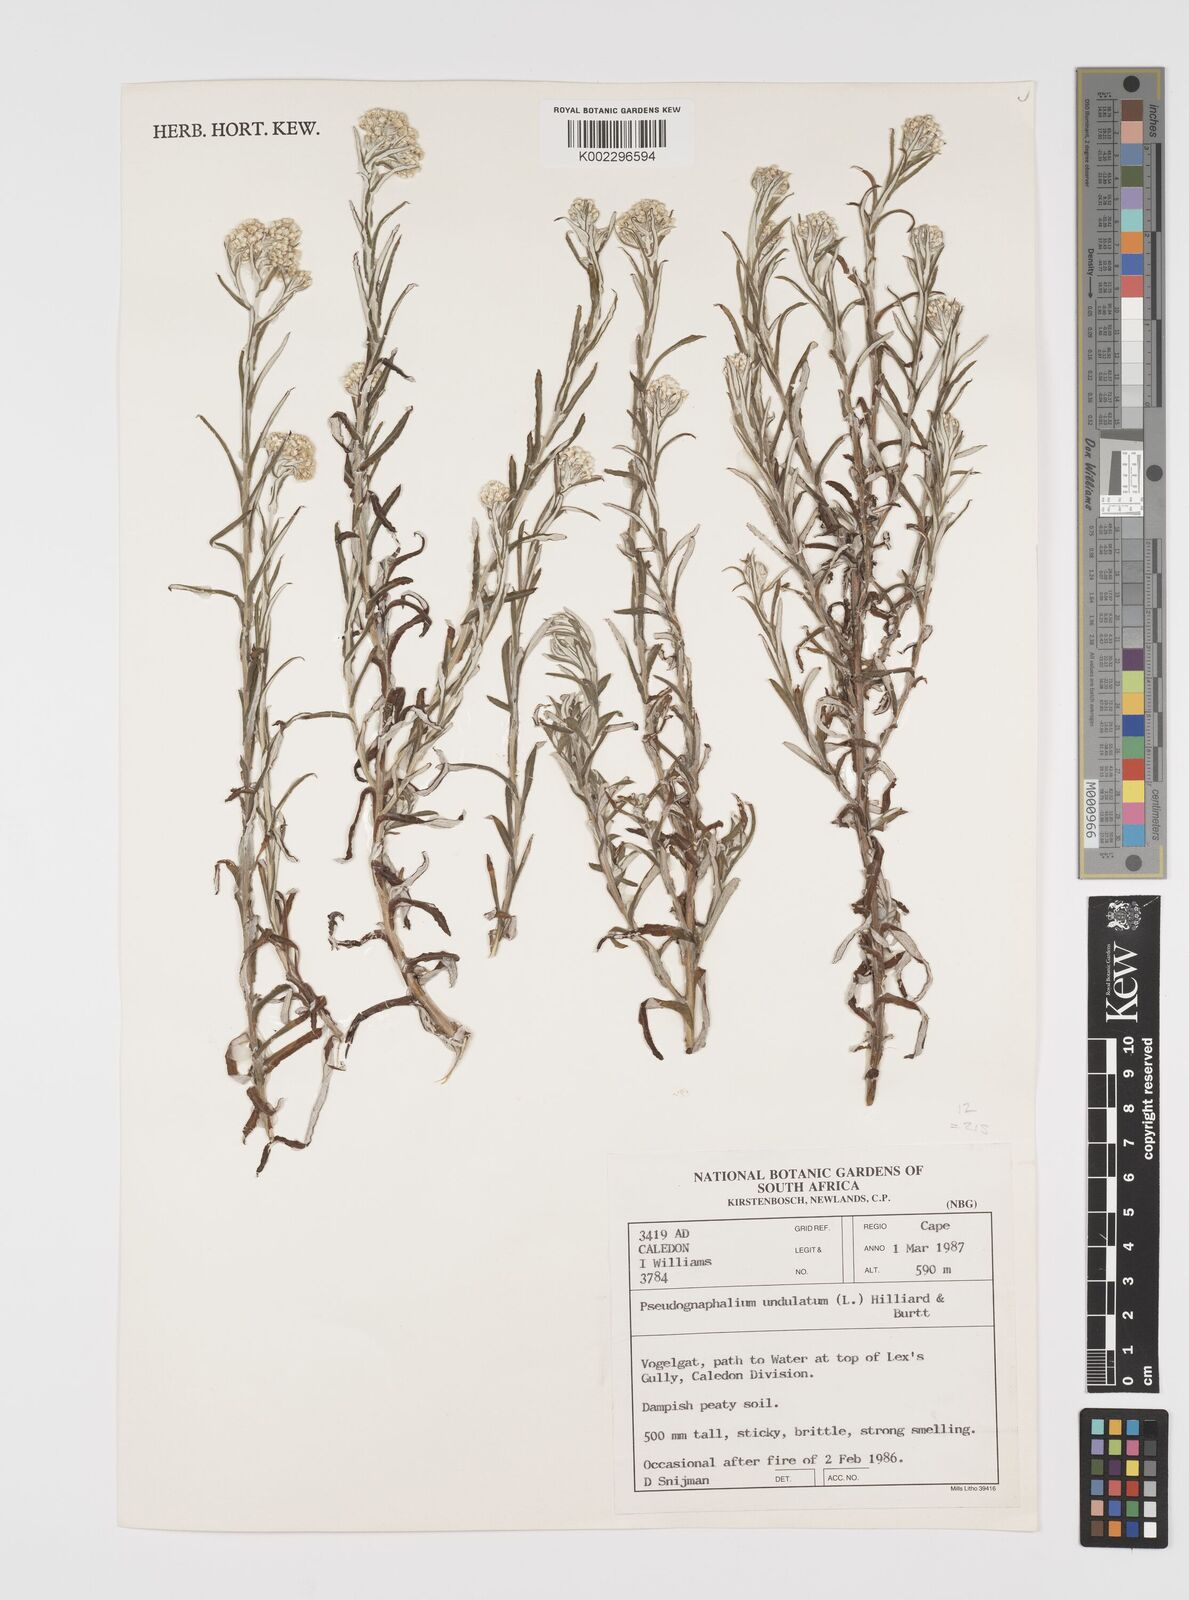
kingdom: Plantae
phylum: Tracheophyta
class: Magnoliopsida
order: Asterales
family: Asteraceae
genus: Pseudognaphalium
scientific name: Pseudognaphalium undulatum
